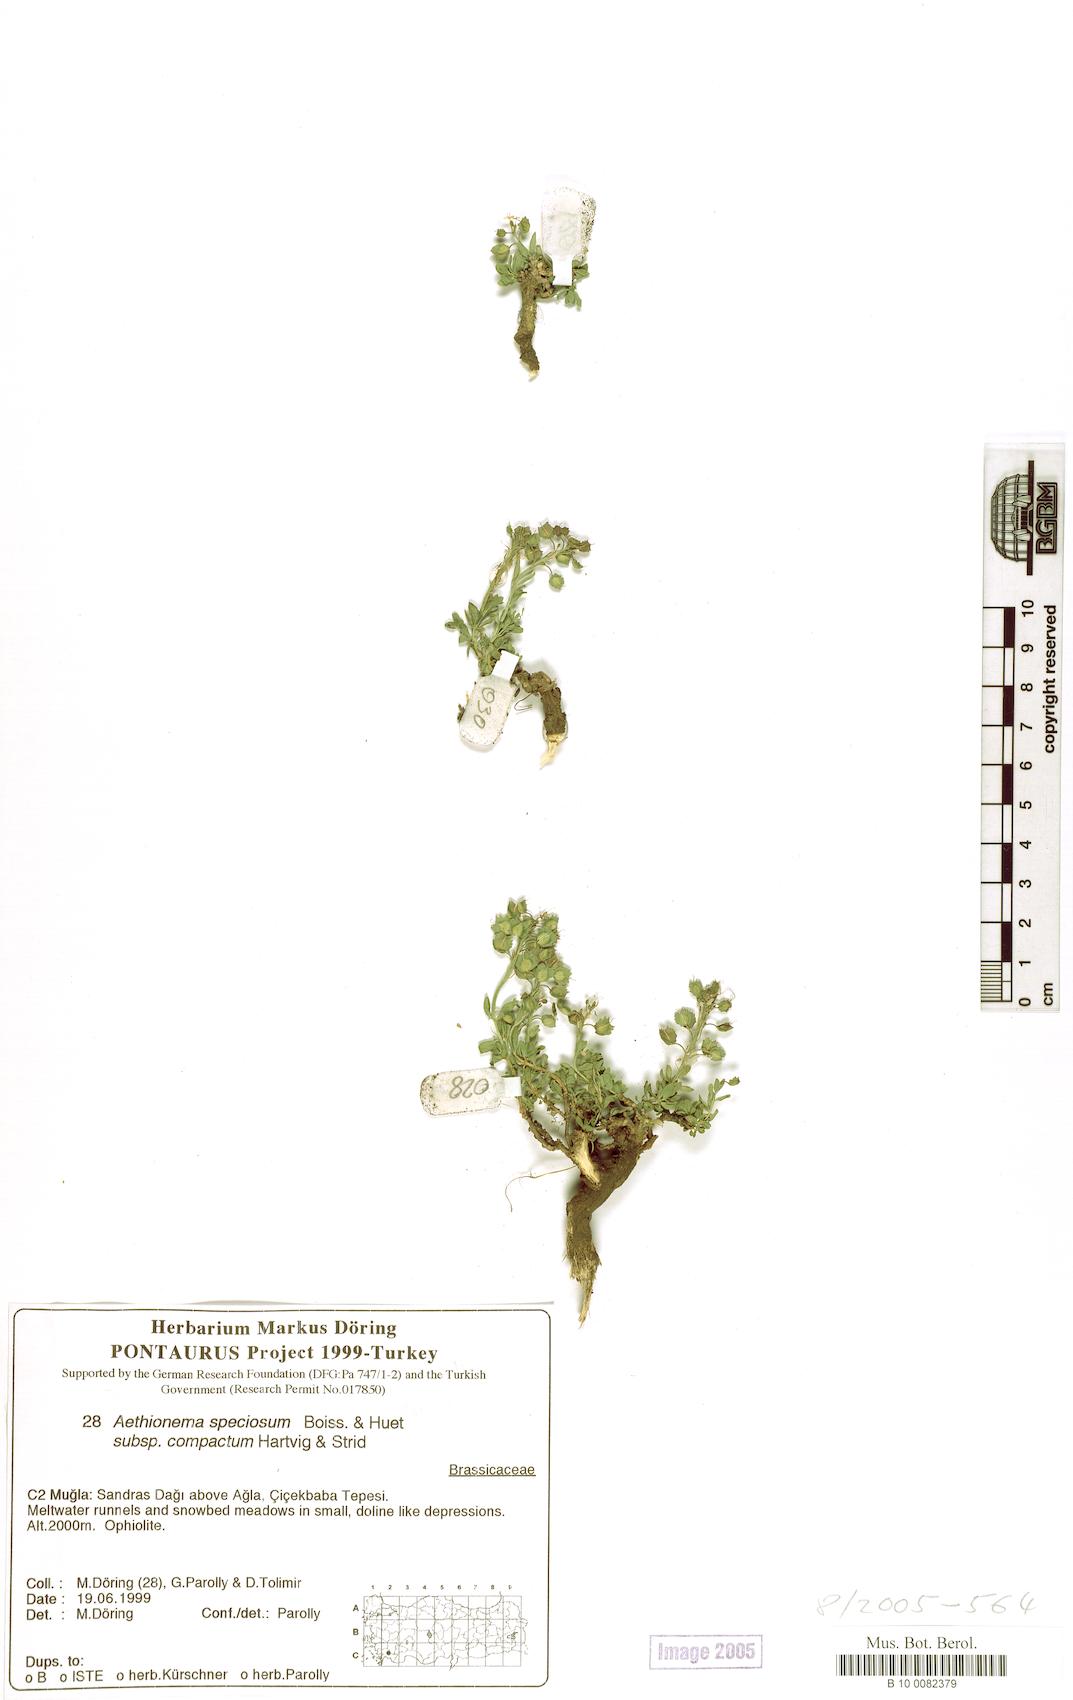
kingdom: Plantae
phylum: Tracheophyta
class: Magnoliopsida
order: Brassicales
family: Brassicaceae
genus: Aethionema
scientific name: Aethionema compactum
